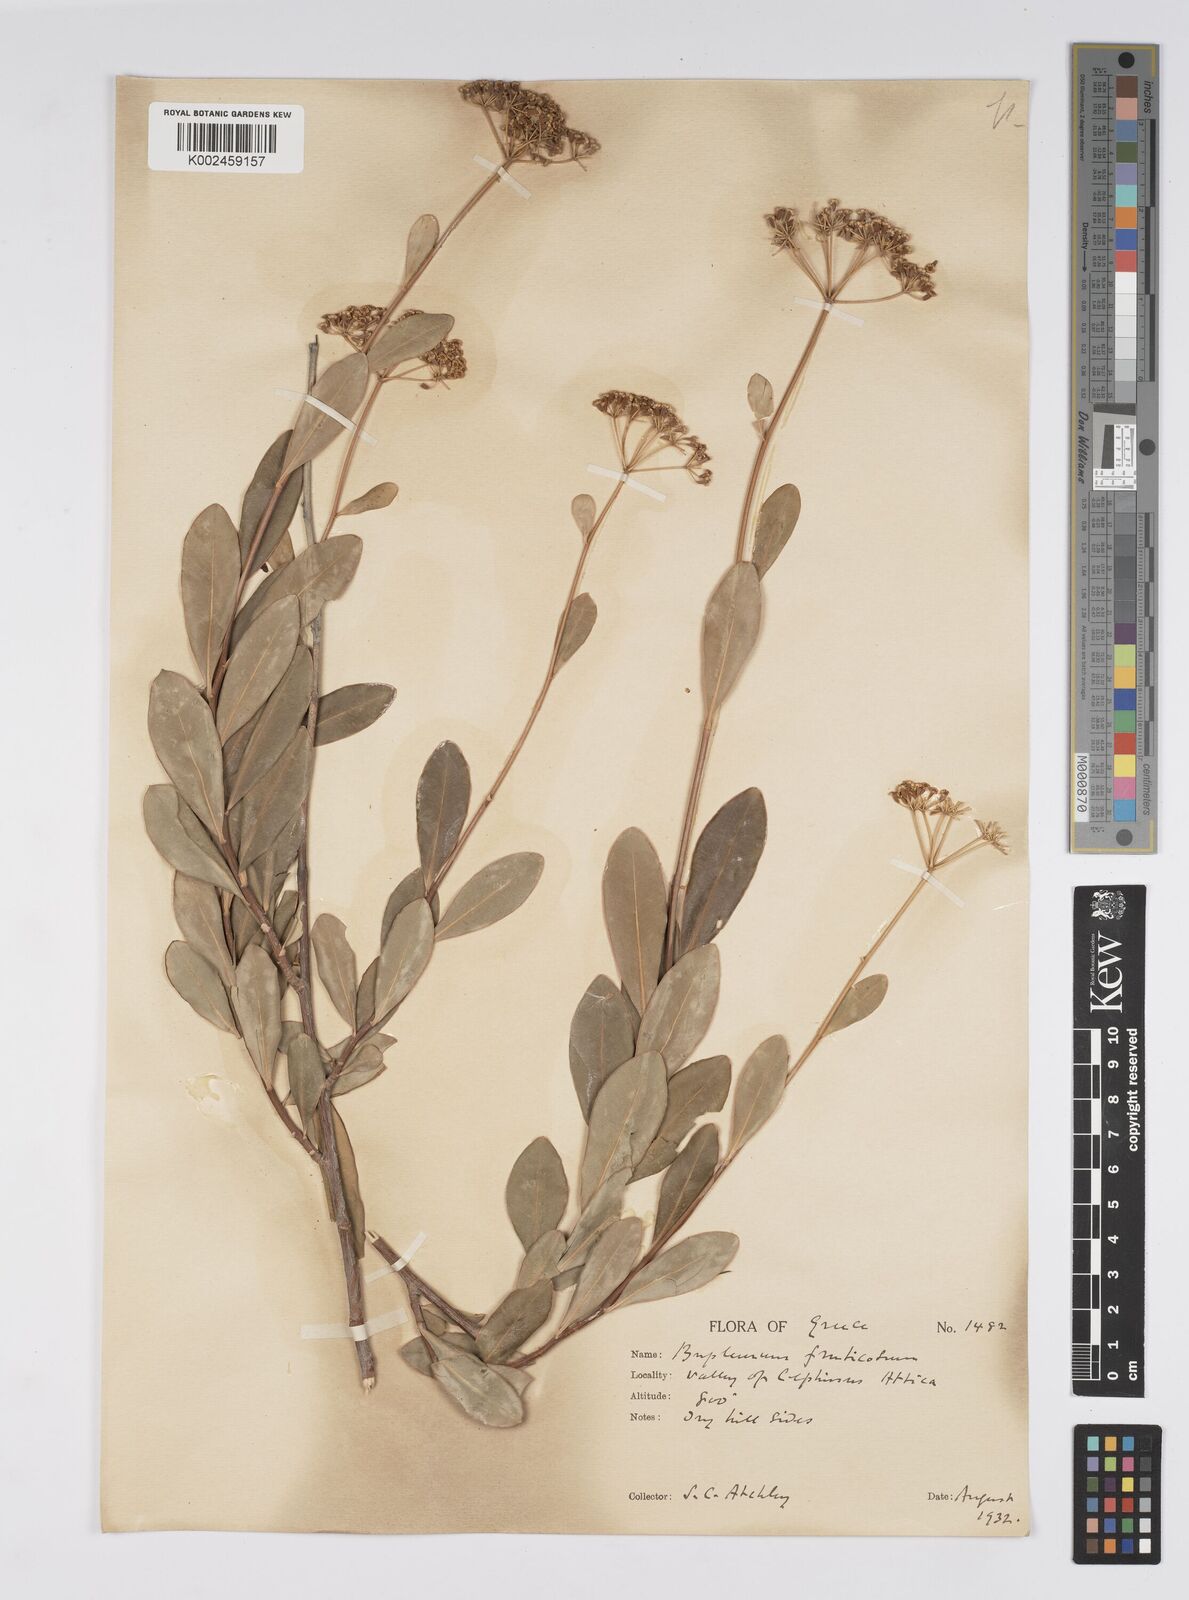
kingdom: Plantae
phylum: Tracheophyta
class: Magnoliopsida
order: Apiales
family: Apiaceae
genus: Bupleurum
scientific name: Bupleurum fruticosum
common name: Shrubby hare's-ear
